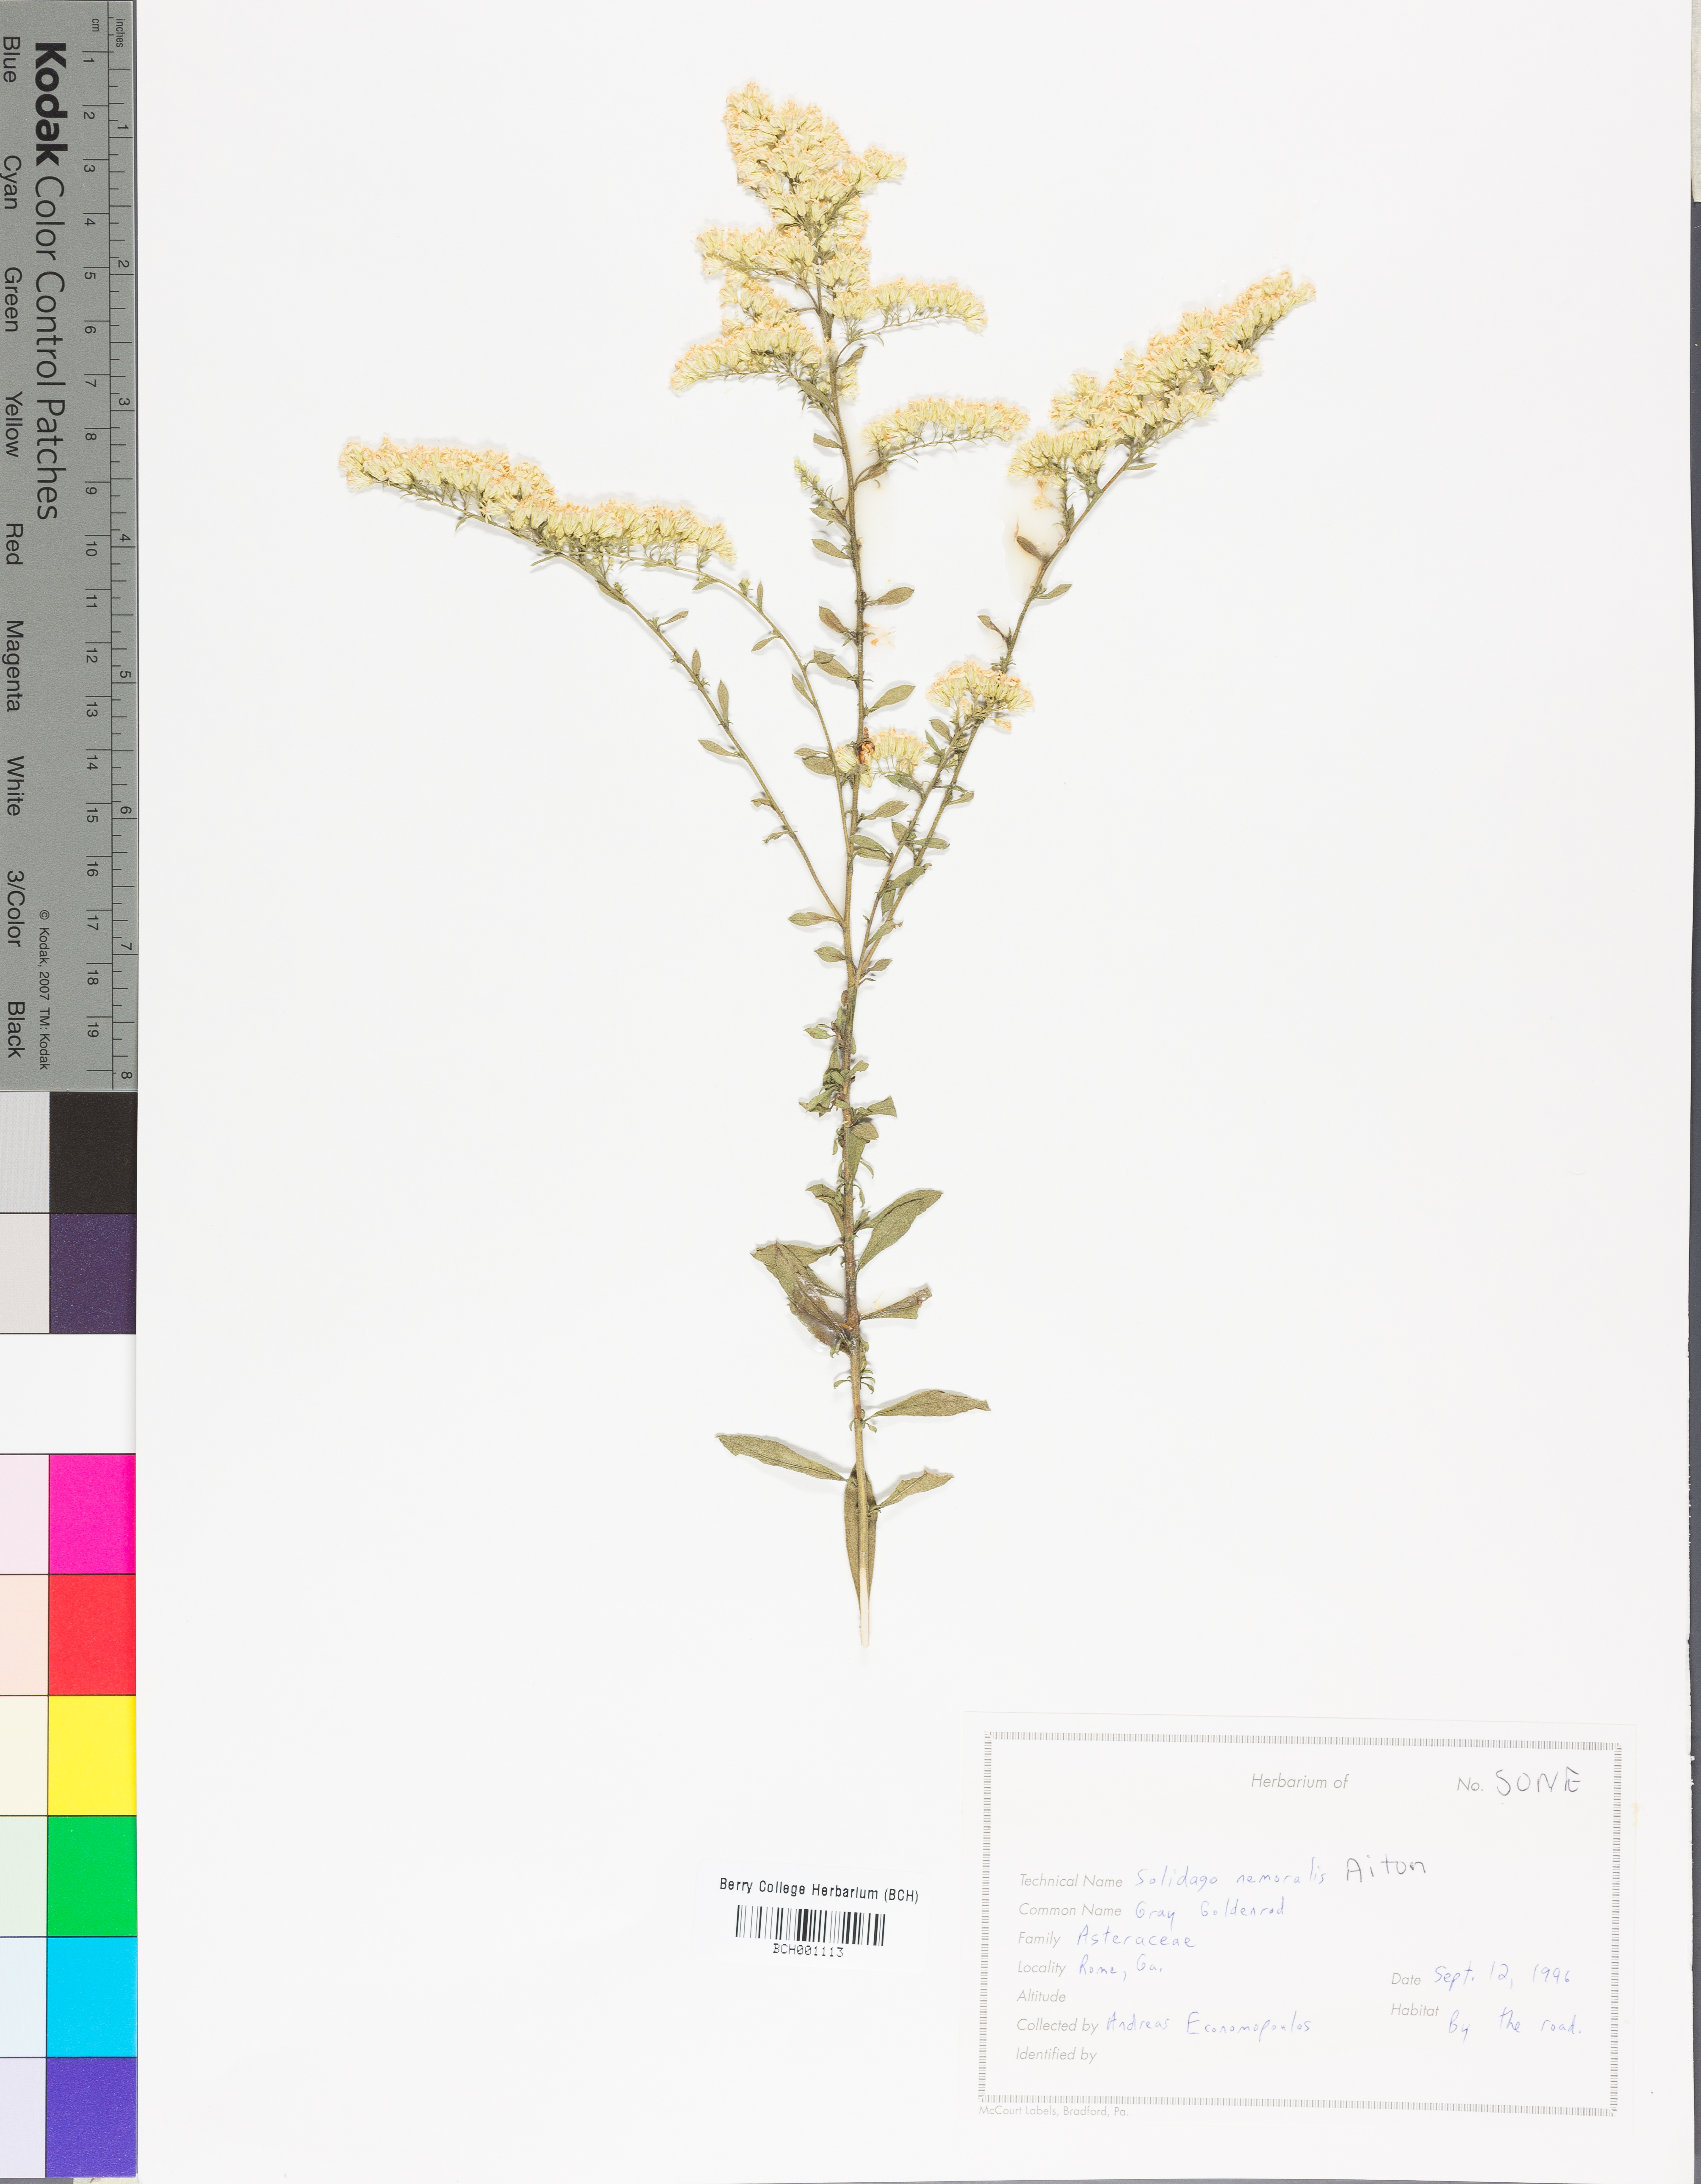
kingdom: Plantae
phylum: Tracheophyta
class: Magnoliopsida
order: Asterales
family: Asteraceae
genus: Solidago
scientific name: Solidago nemoralis
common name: Grey goldenrod
